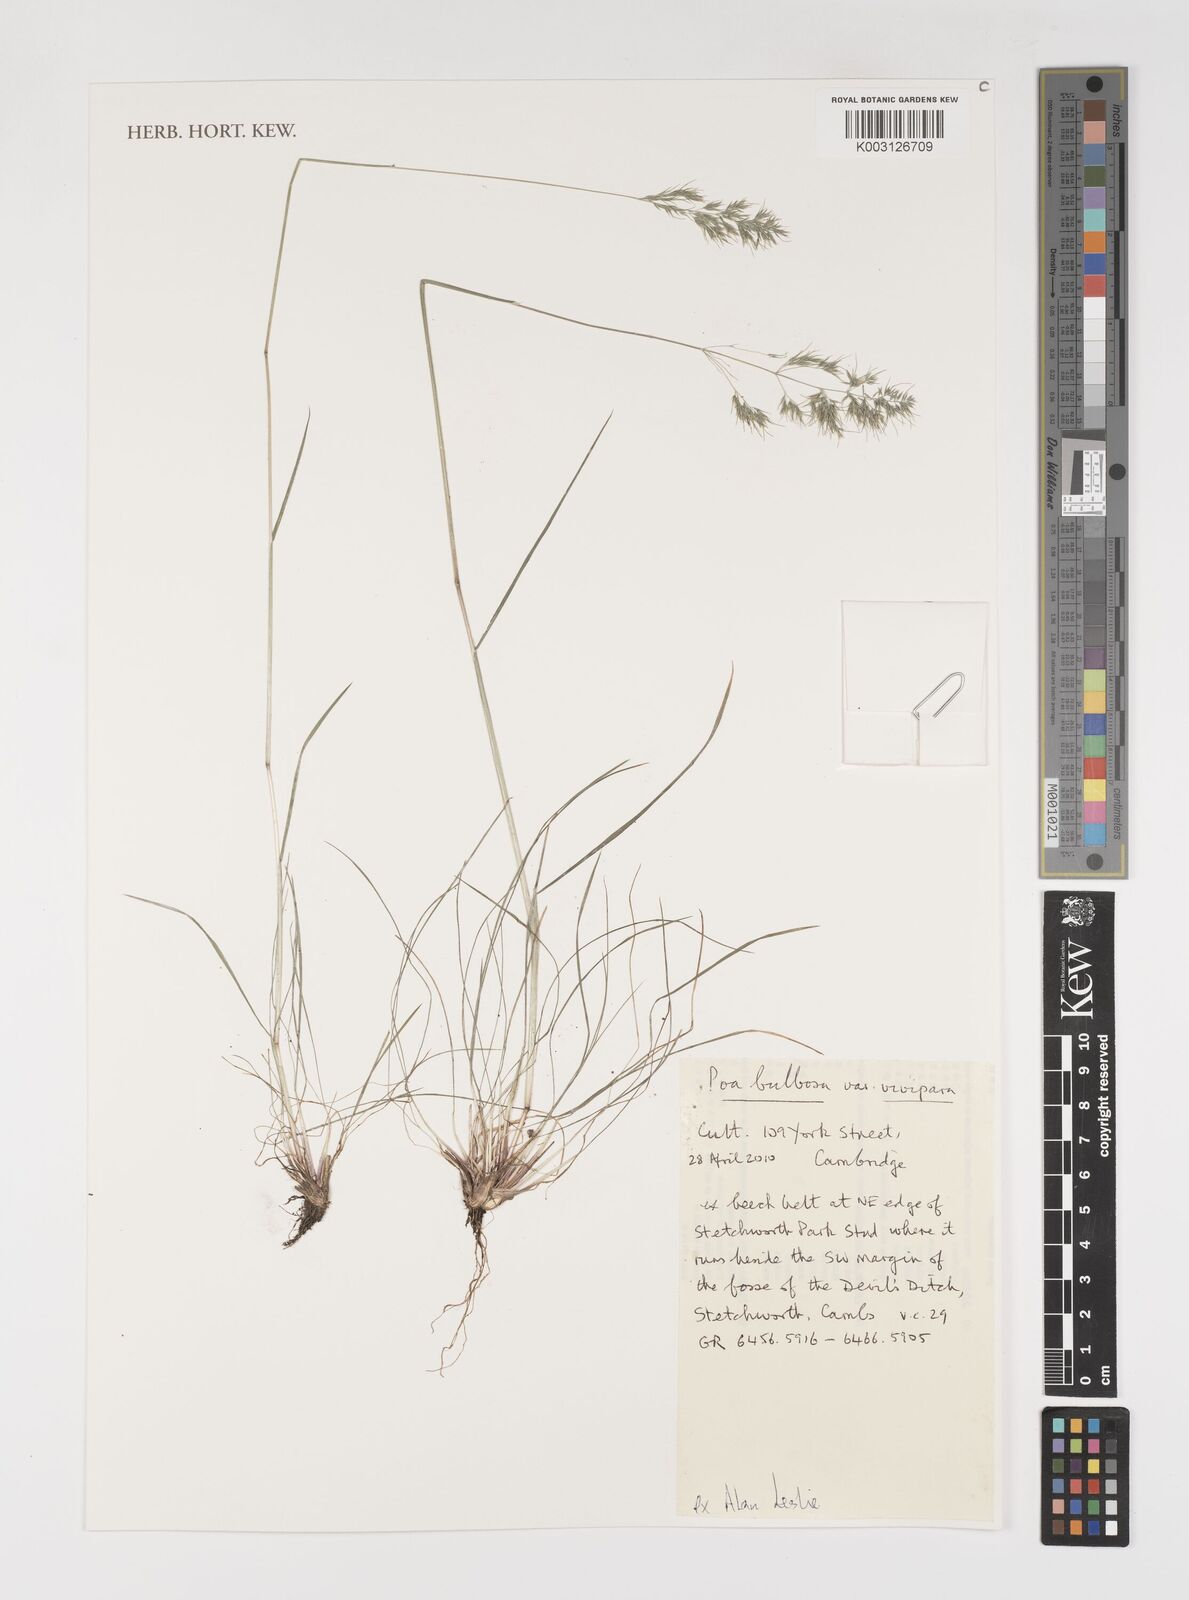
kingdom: Plantae
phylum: Tracheophyta
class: Liliopsida
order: Poales
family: Poaceae
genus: Poa
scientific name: Poa bulbosa
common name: Bulbous bluegrass
